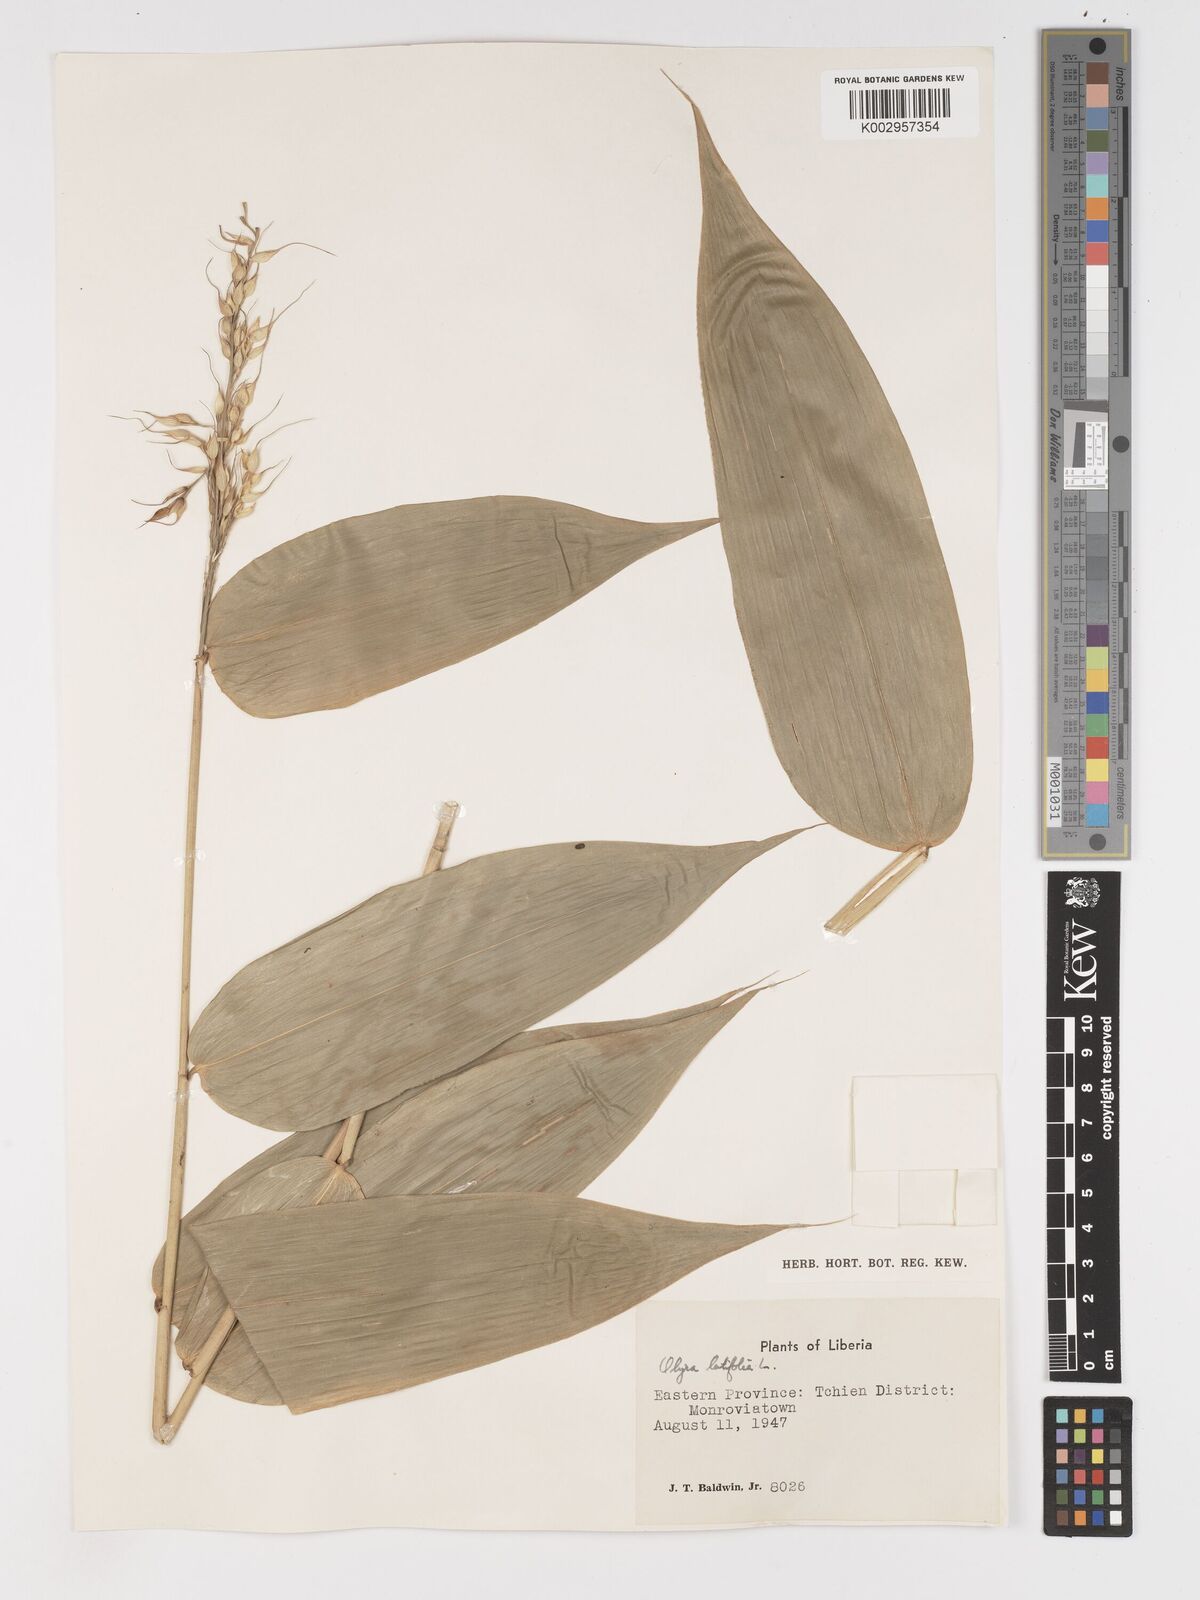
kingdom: Plantae
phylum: Tracheophyta
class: Liliopsida
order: Poales
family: Poaceae
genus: Olyra
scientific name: Olyra latifolia
